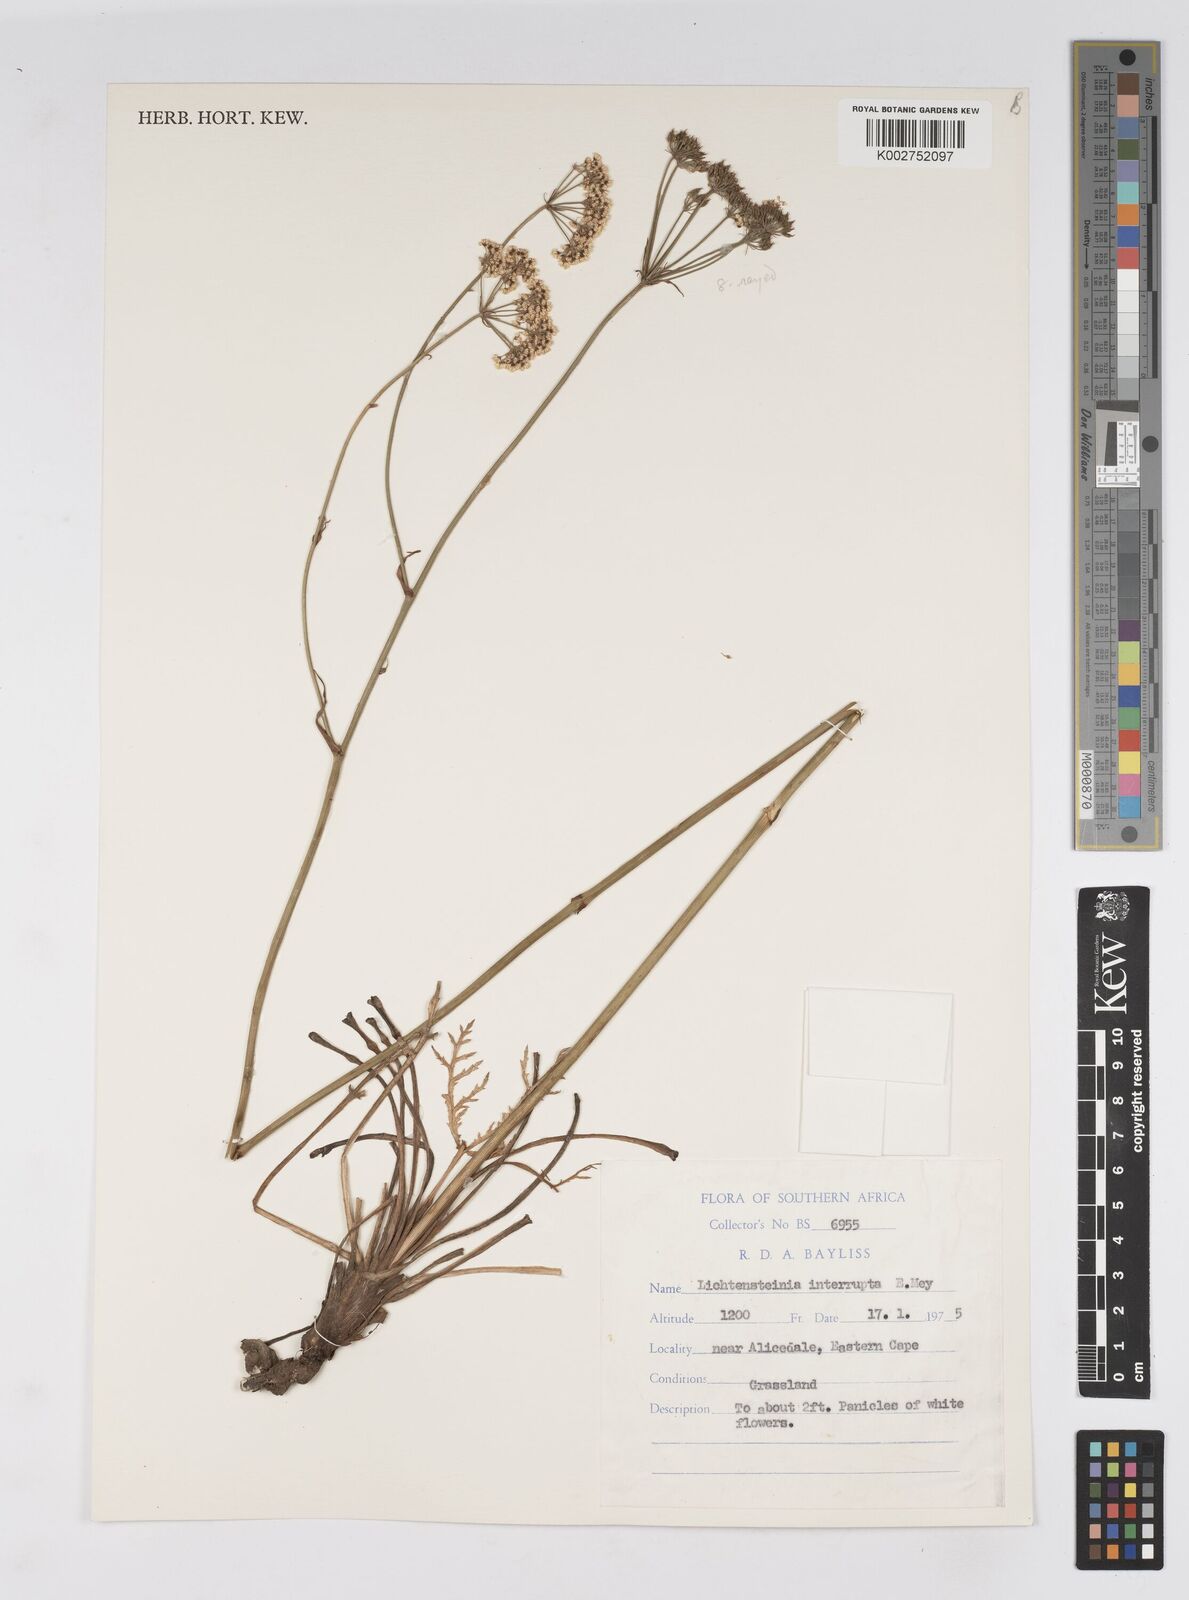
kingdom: Plantae
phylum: Tracheophyta
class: Magnoliopsida
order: Apiales
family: Apiaceae
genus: Lichtensteinia
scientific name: Lichtensteinia interrupta
